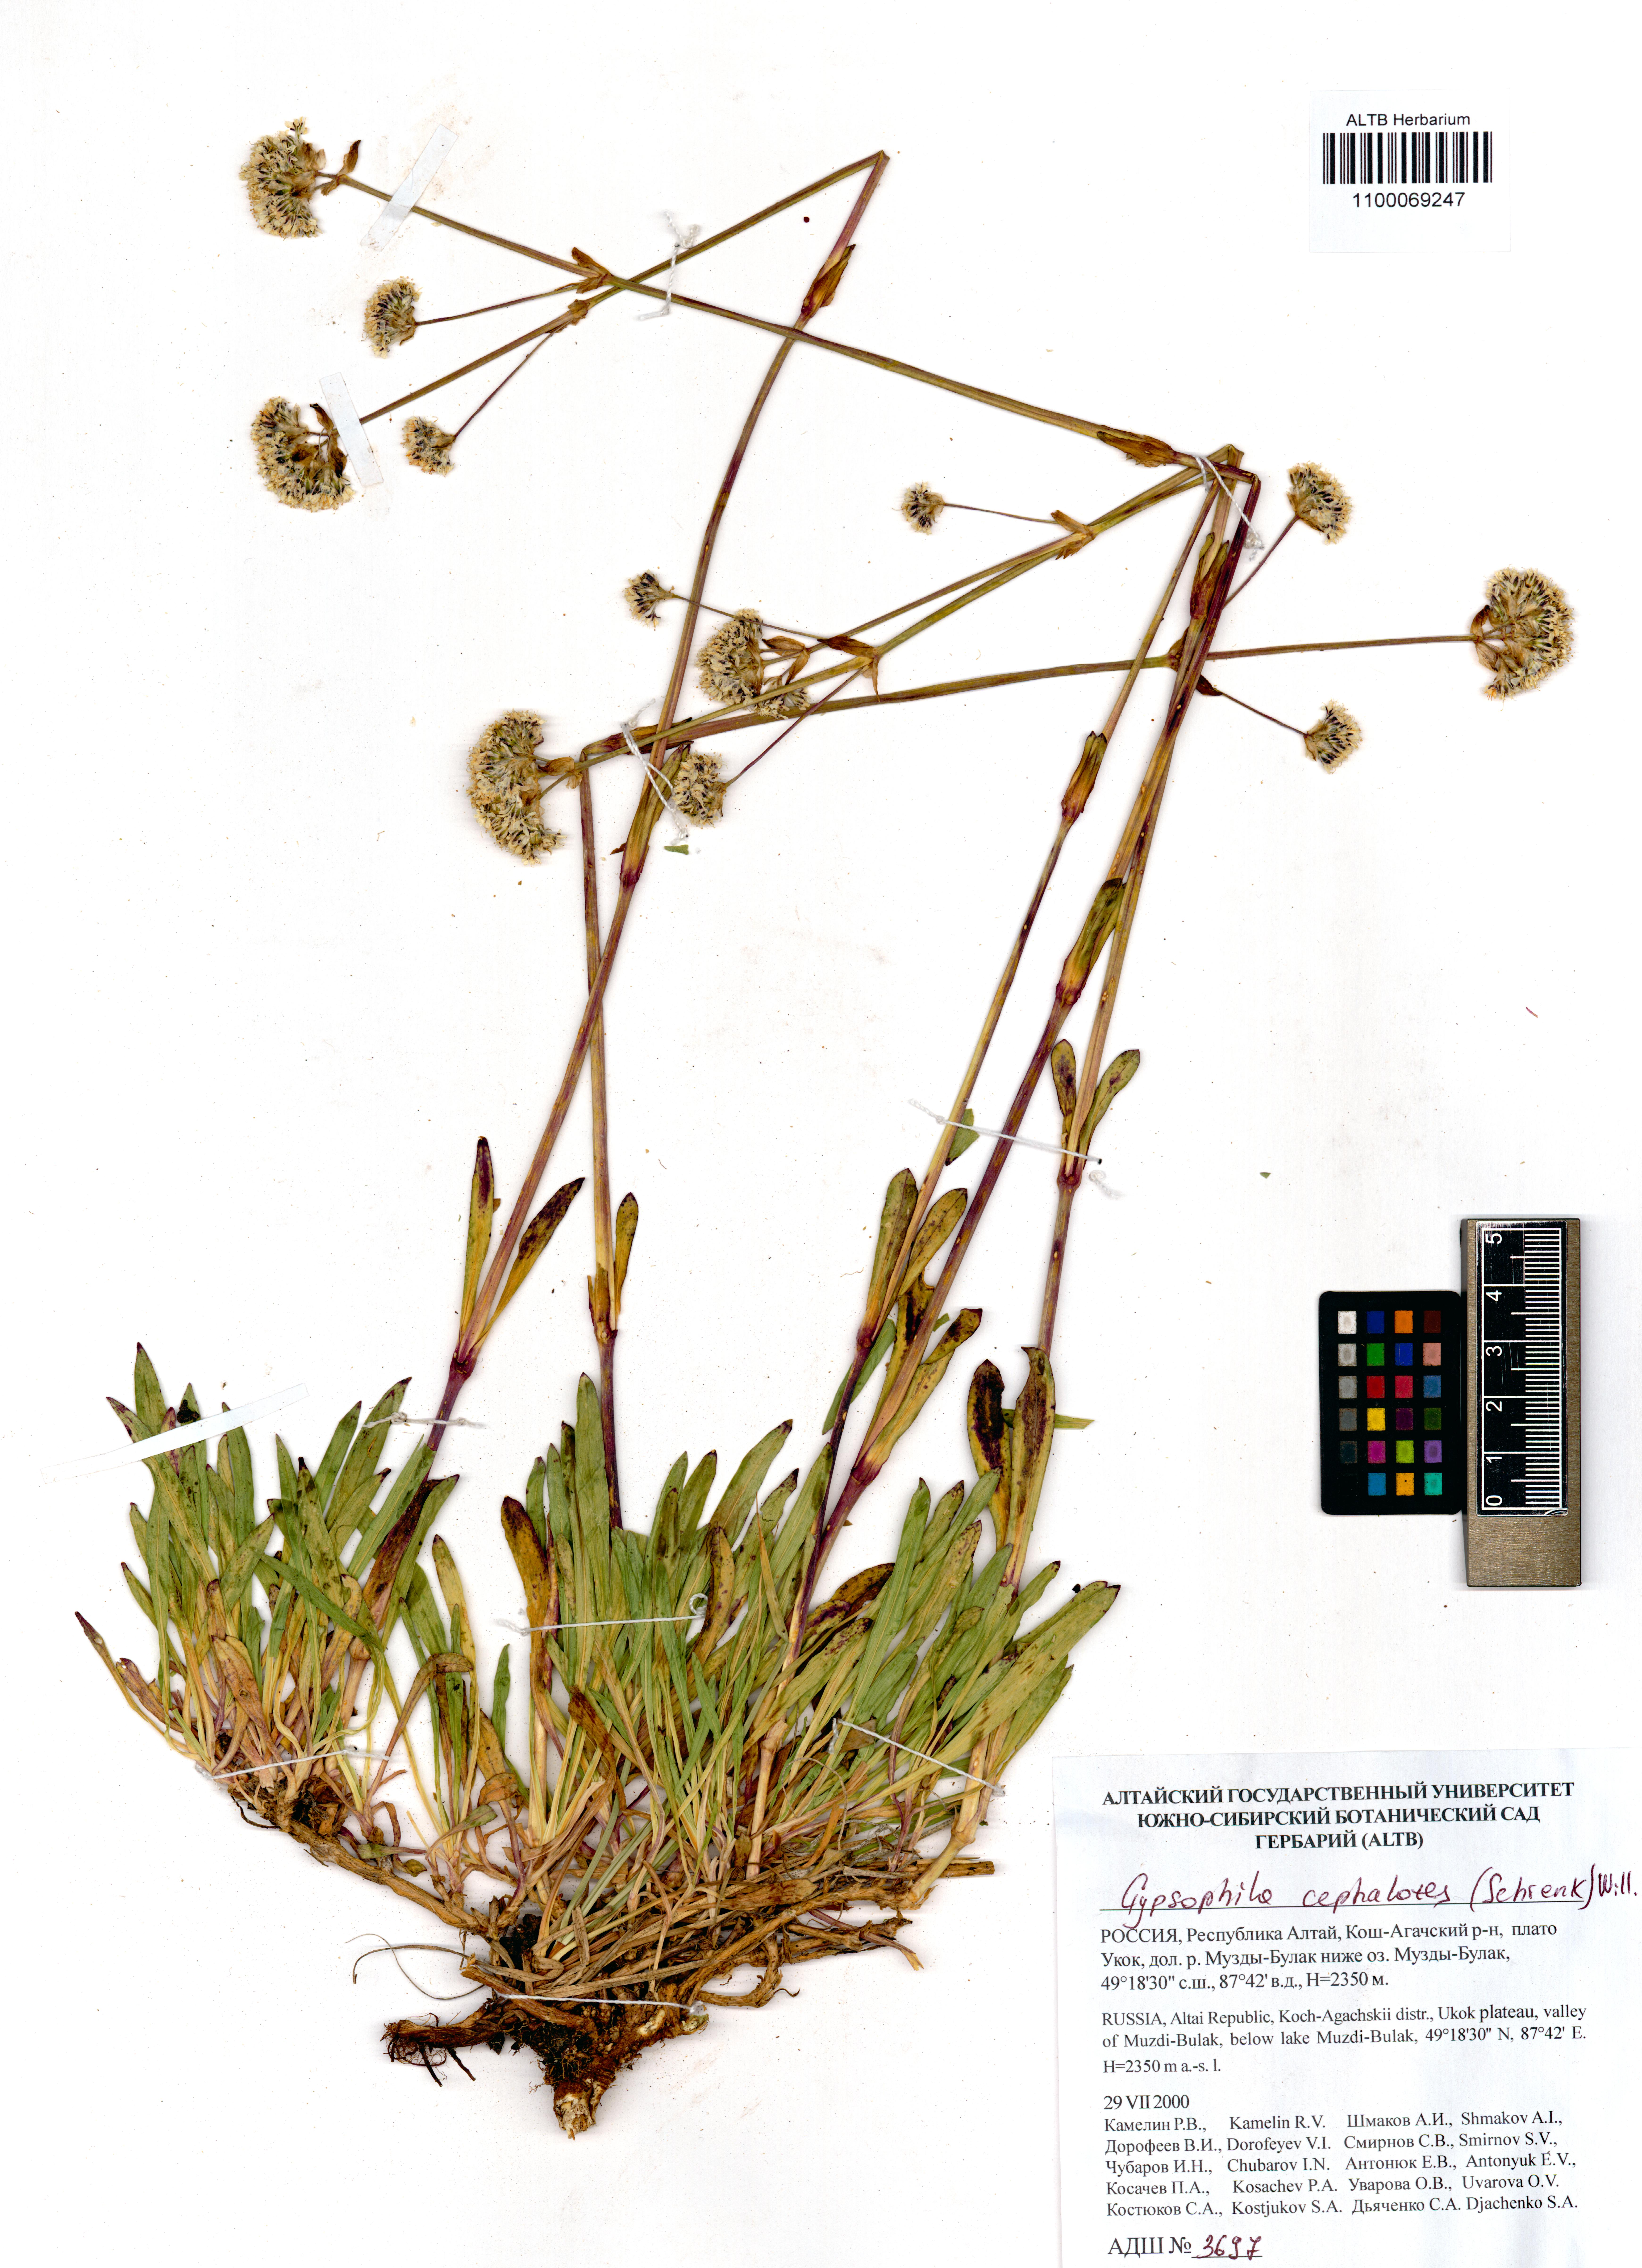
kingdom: Plantae
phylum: Tracheophyta
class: Magnoliopsida
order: Caryophyllales
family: Caryophyllaceae
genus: Gypsophila
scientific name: Gypsophila cephalotes
